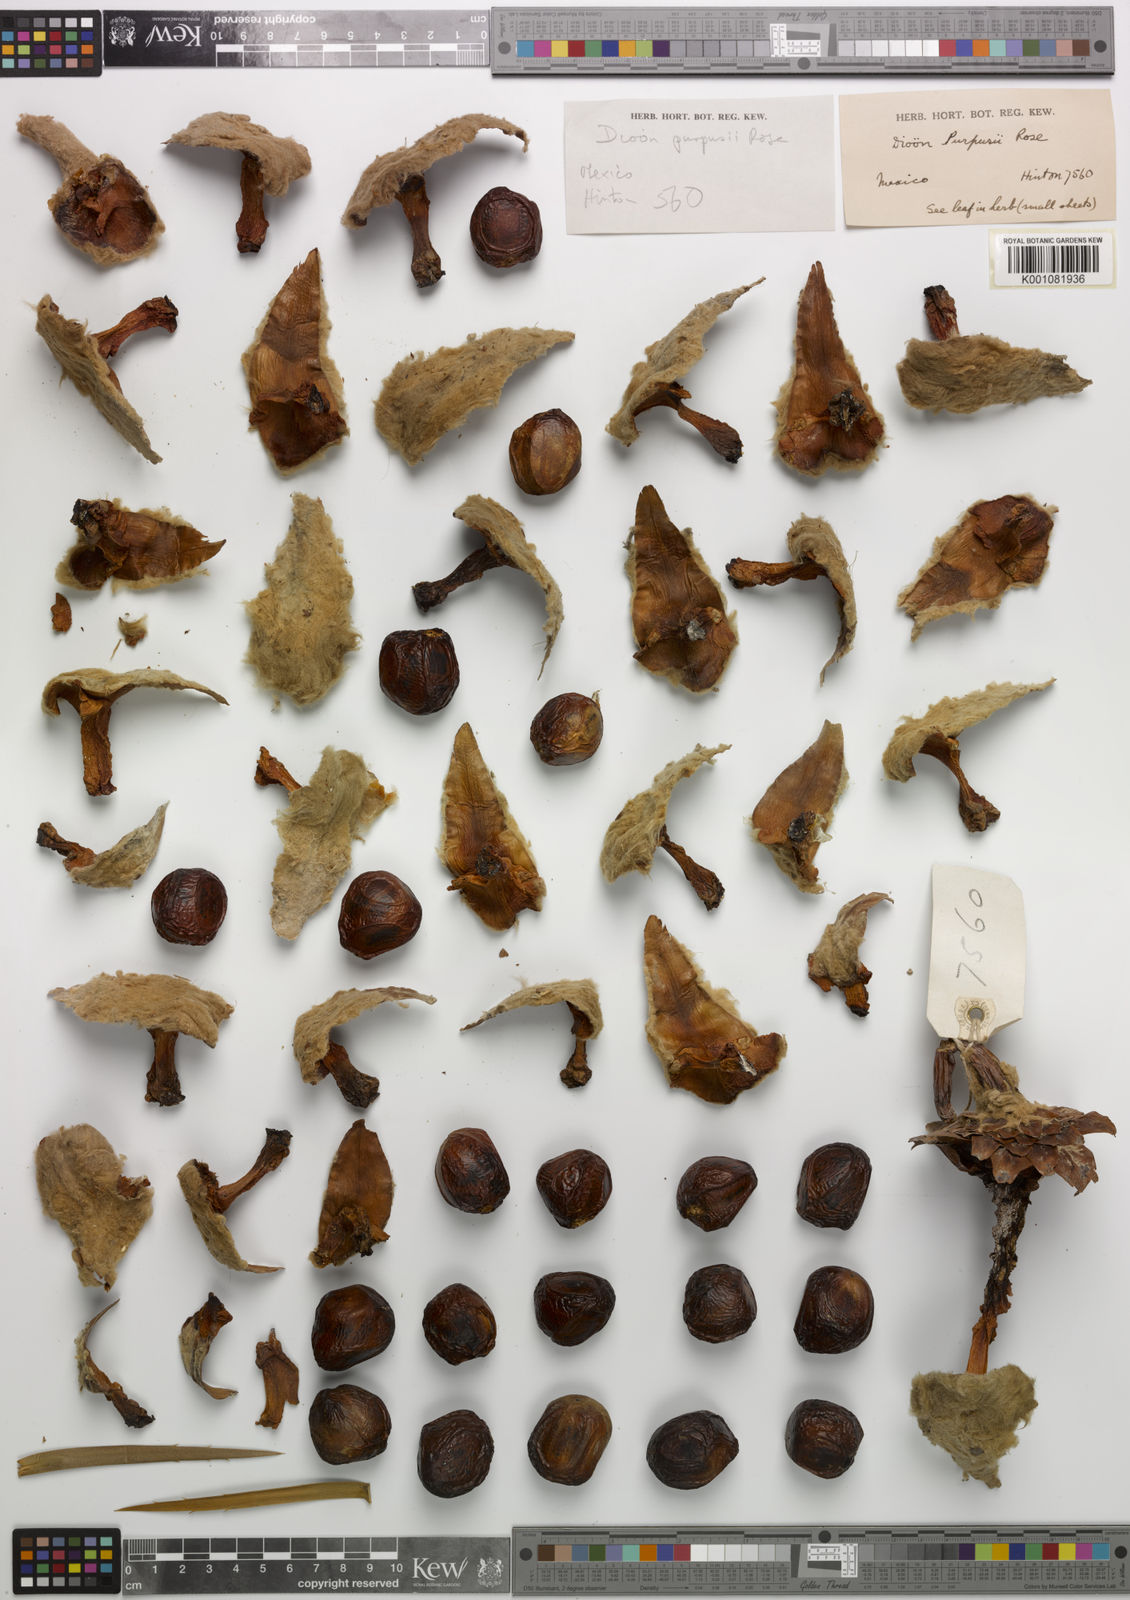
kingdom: Plantae
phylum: Tracheophyta
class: Cycadopsida
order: Cycadales
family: Zamiaceae
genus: Dioon
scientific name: Dioon edule
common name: Edible-seed cycas
